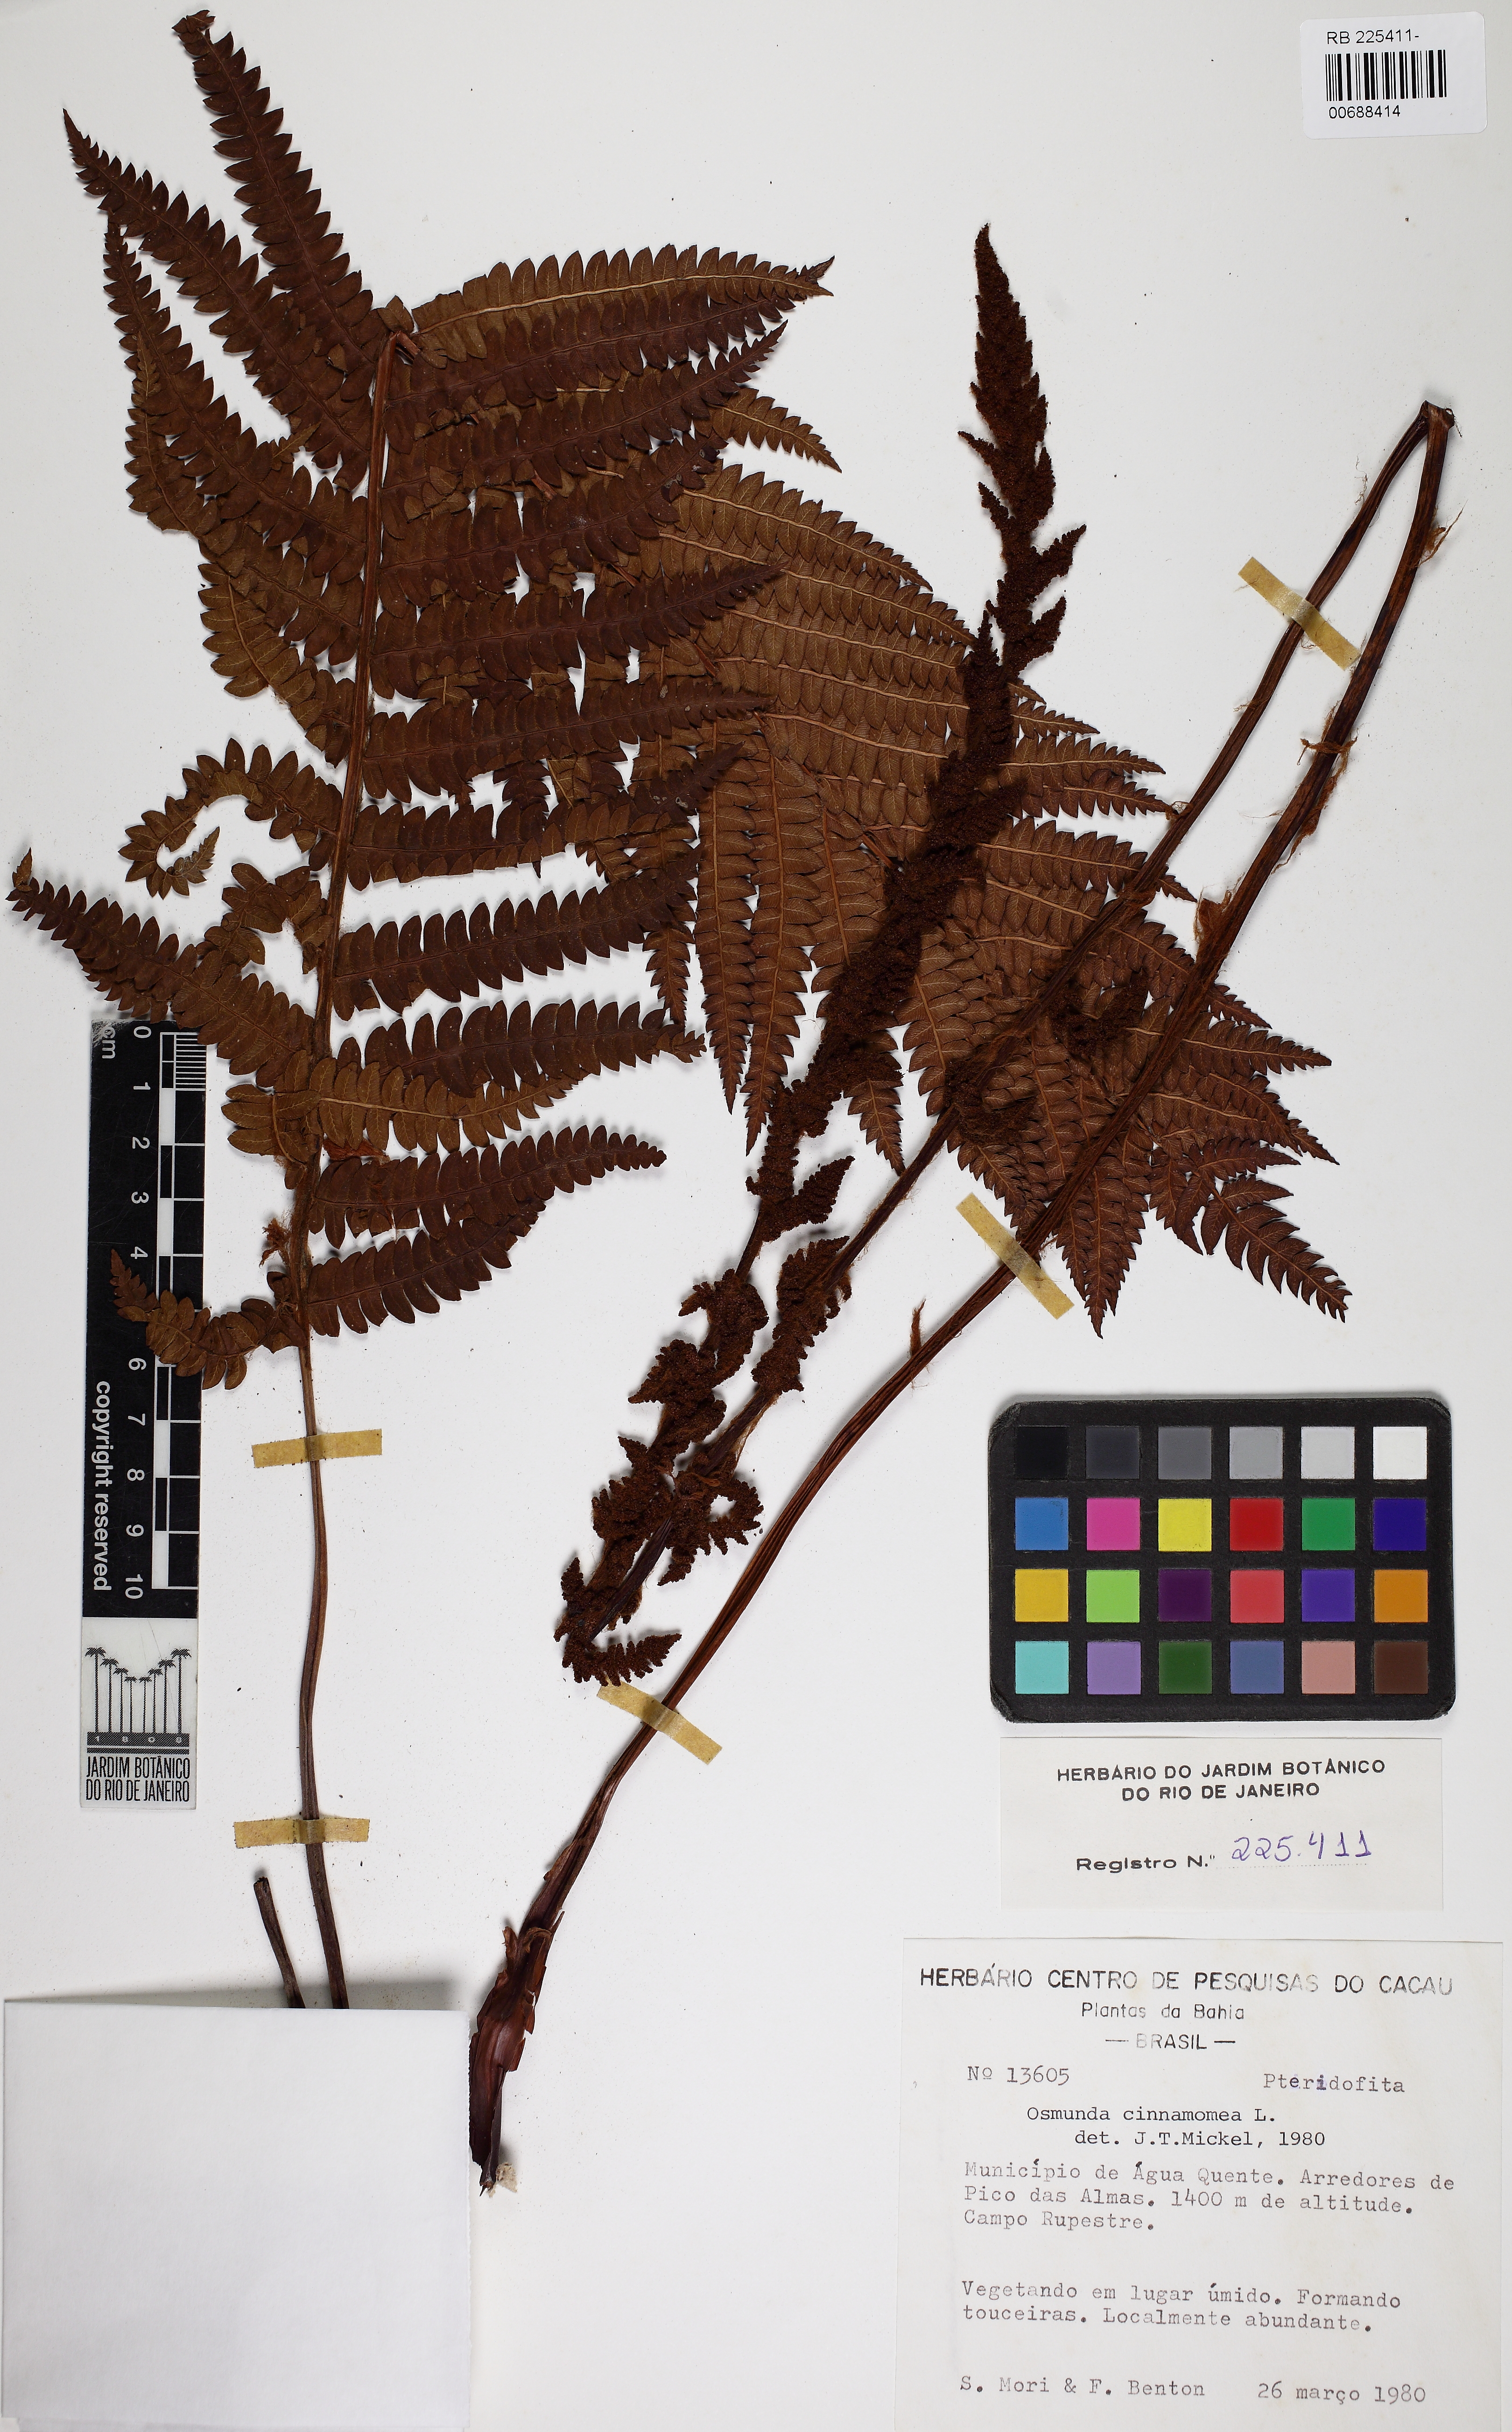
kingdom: Plantae
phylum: Tracheophyta
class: Polypodiopsida
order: Osmundales
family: Osmundaceae
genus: Osmundastrum
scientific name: Osmundastrum cinnamomeum
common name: Cinnamon fern
